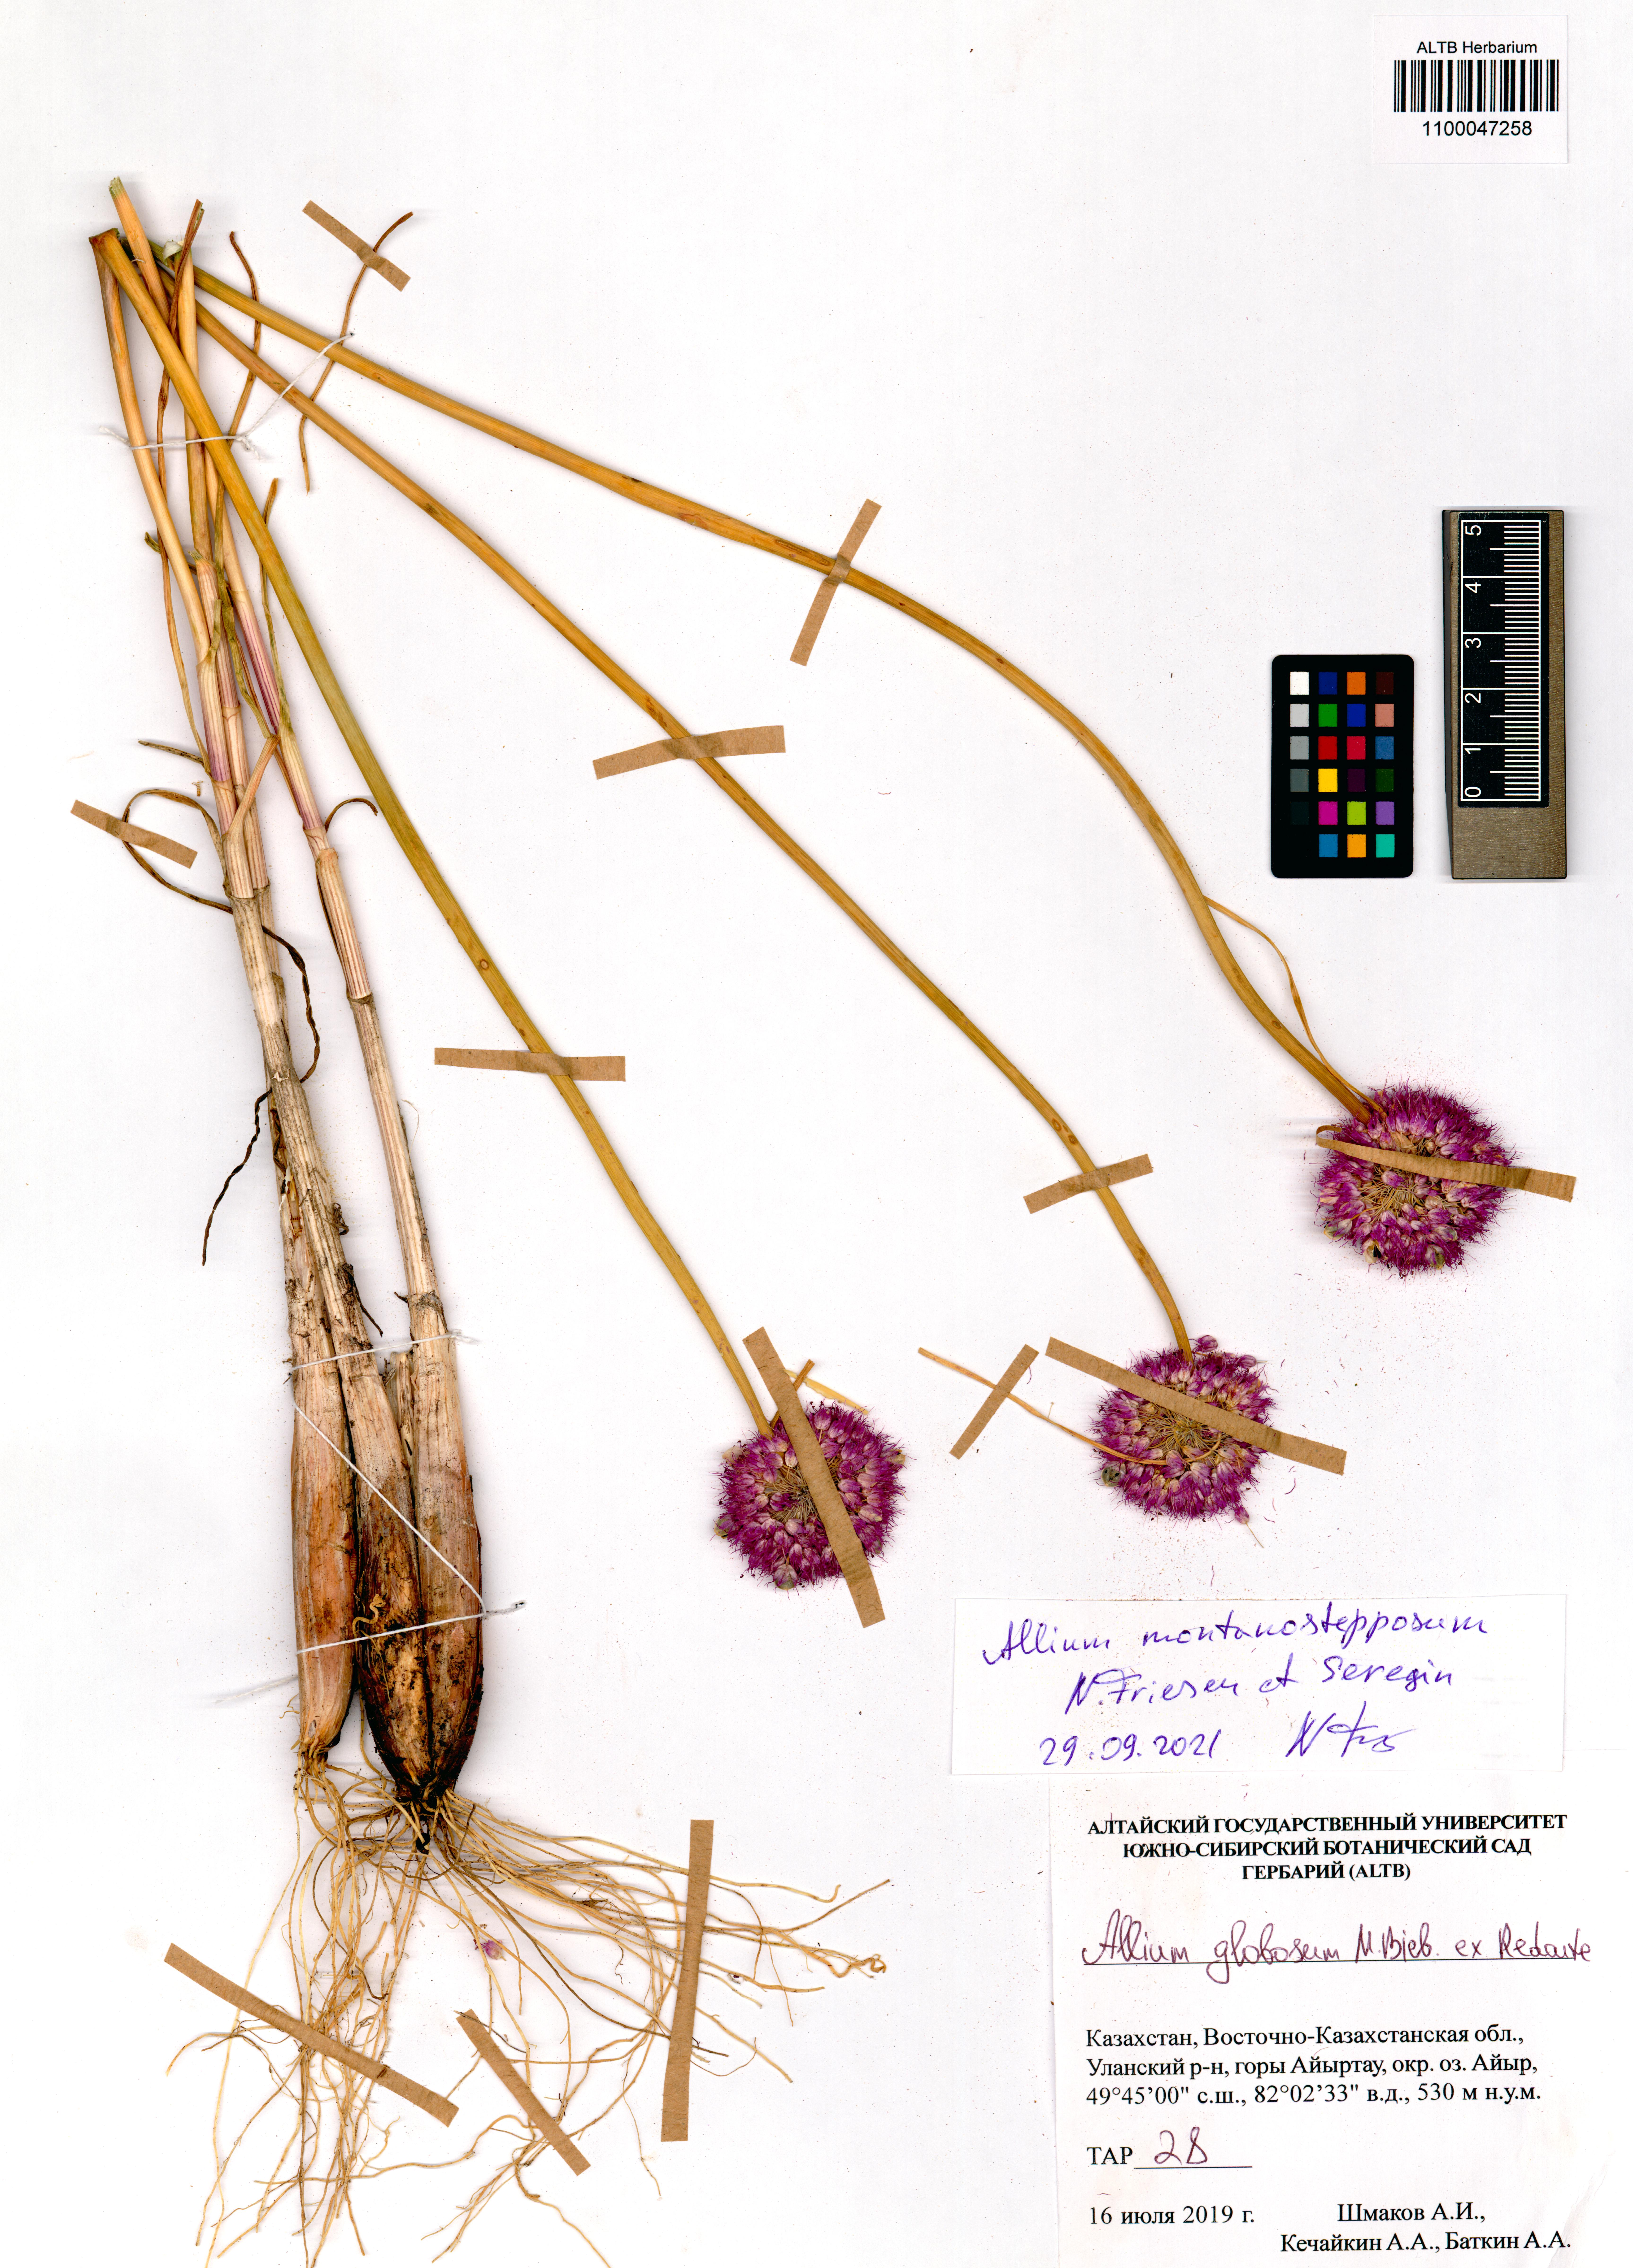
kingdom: Plantae
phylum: Tracheophyta
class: Liliopsida
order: Asparagales
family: Amaryllidaceae
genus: Allium
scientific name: Allium montanostepposum
